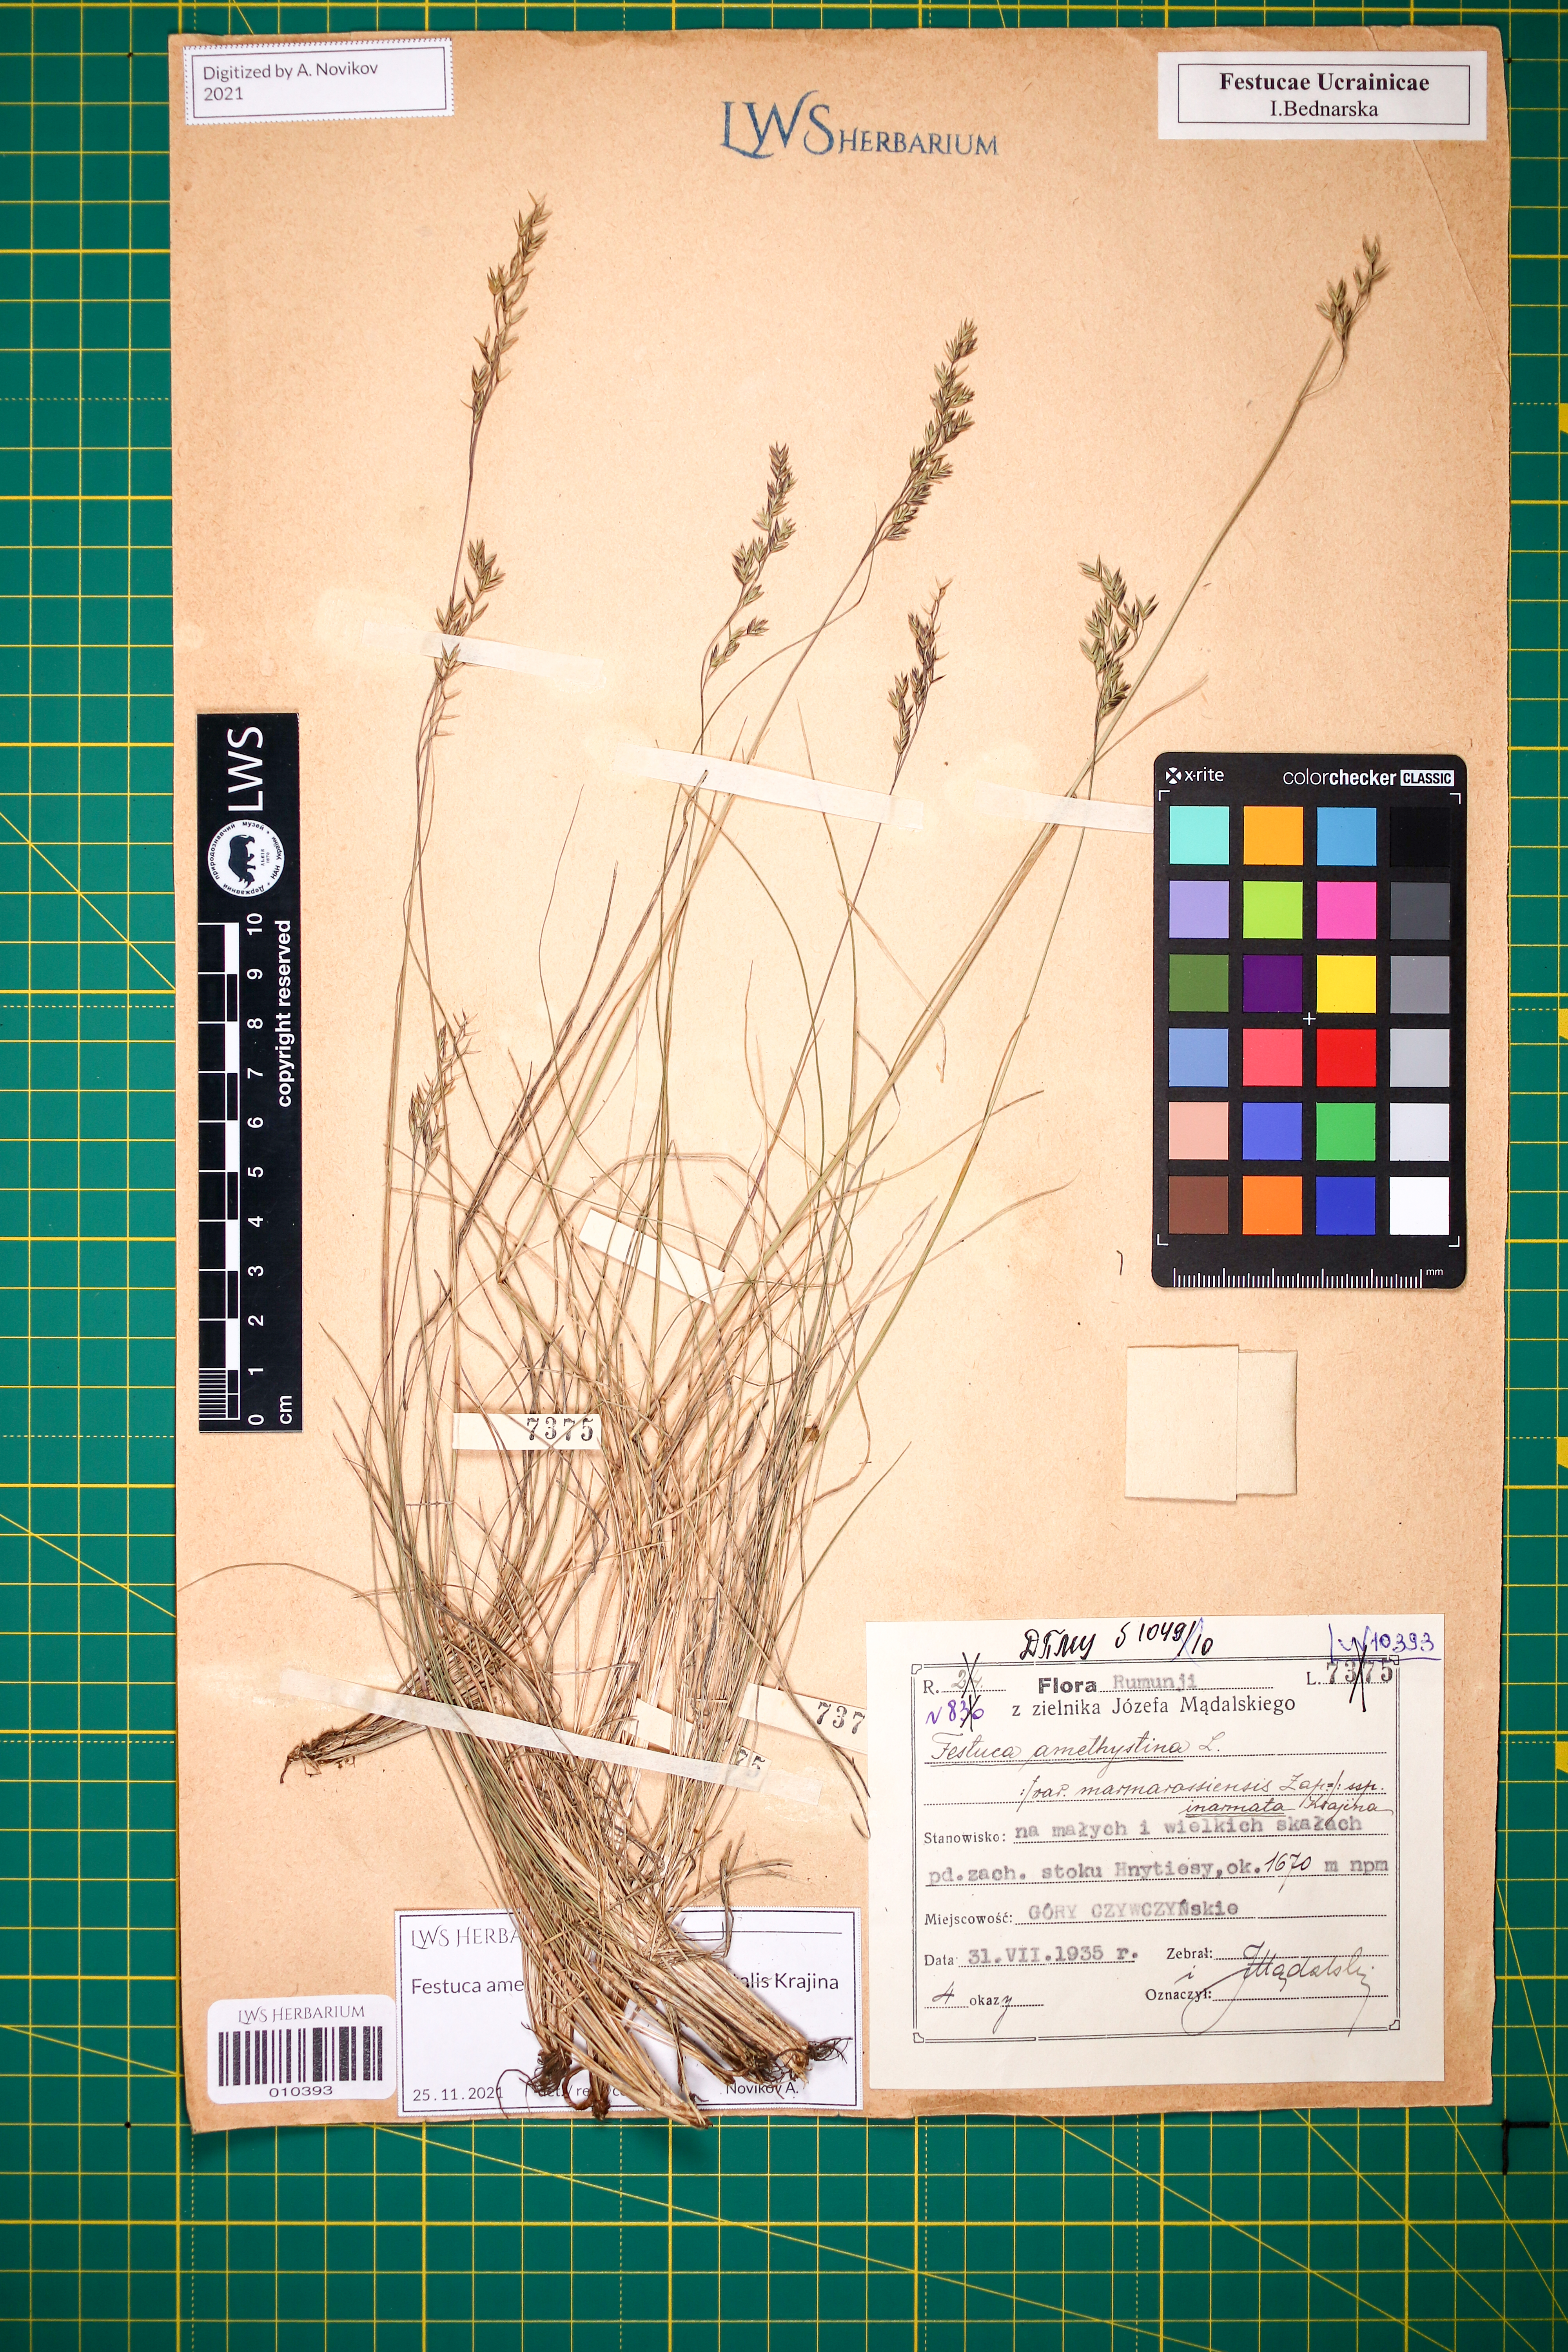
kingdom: Plantae
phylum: Tracheophyta
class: Liliopsida
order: Poales
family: Poaceae
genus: Festuca
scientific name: Festuca amethystina
